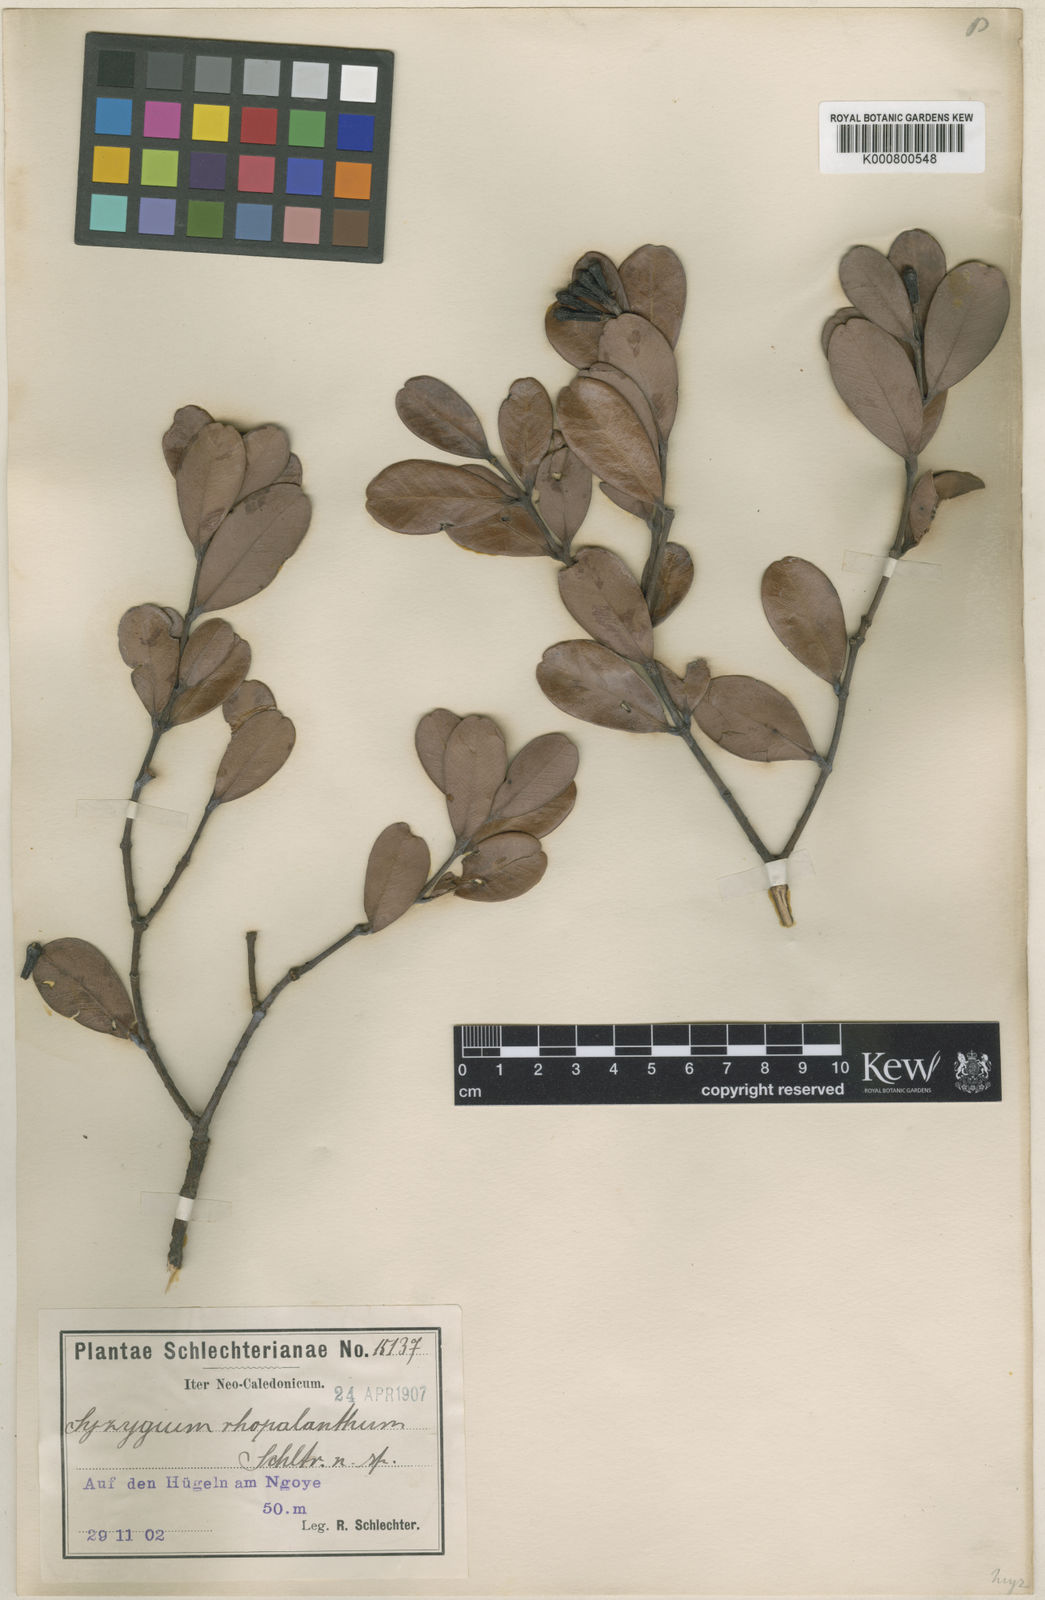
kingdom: Plantae
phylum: Tracheophyta
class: Magnoliopsida
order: Myrtales
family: Myrtaceae
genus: Syzygium
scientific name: Syzygium rhopalanthum
